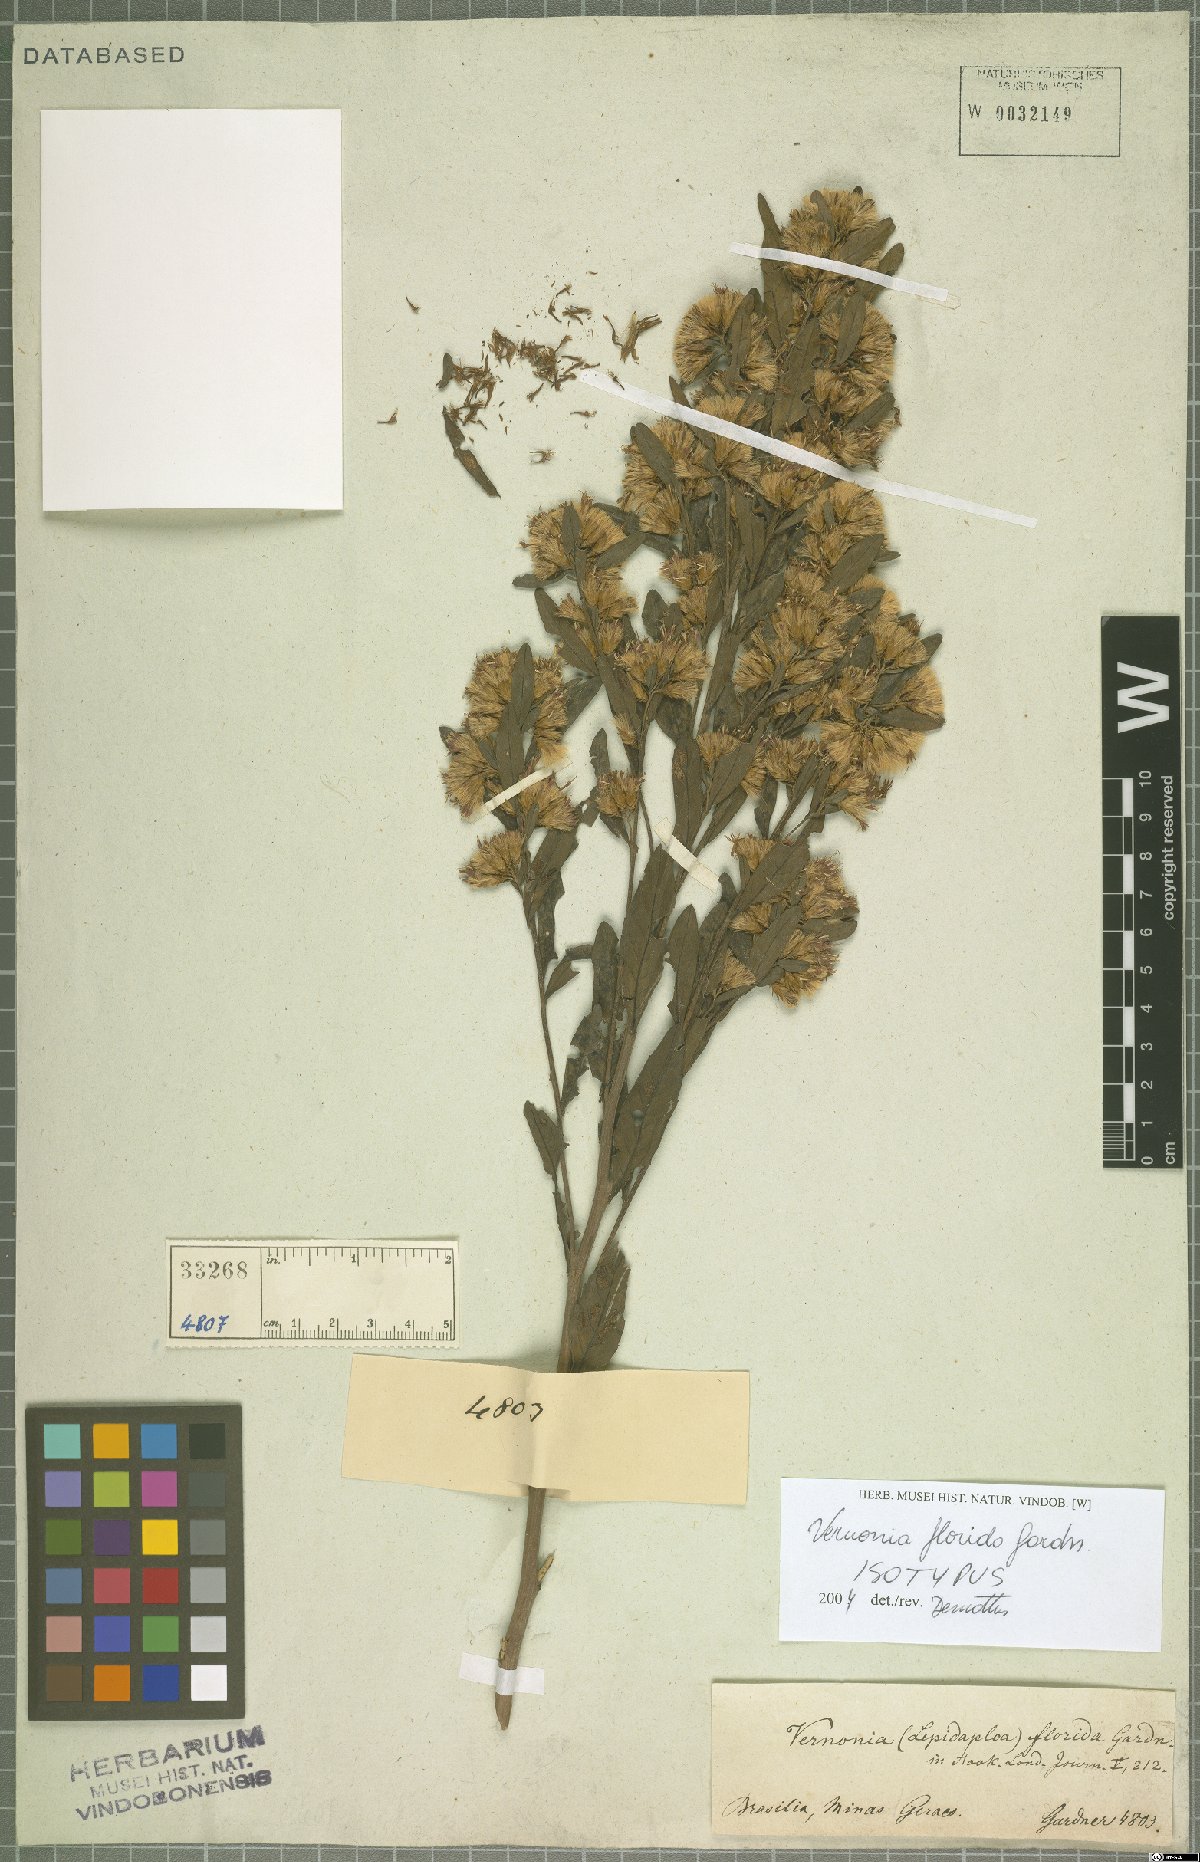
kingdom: Plantae
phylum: Tracheophyta
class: Magnoliopsida
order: Asterales
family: Asteraceae
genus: Vernonanthura
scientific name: Vernonanthura montevidensis
